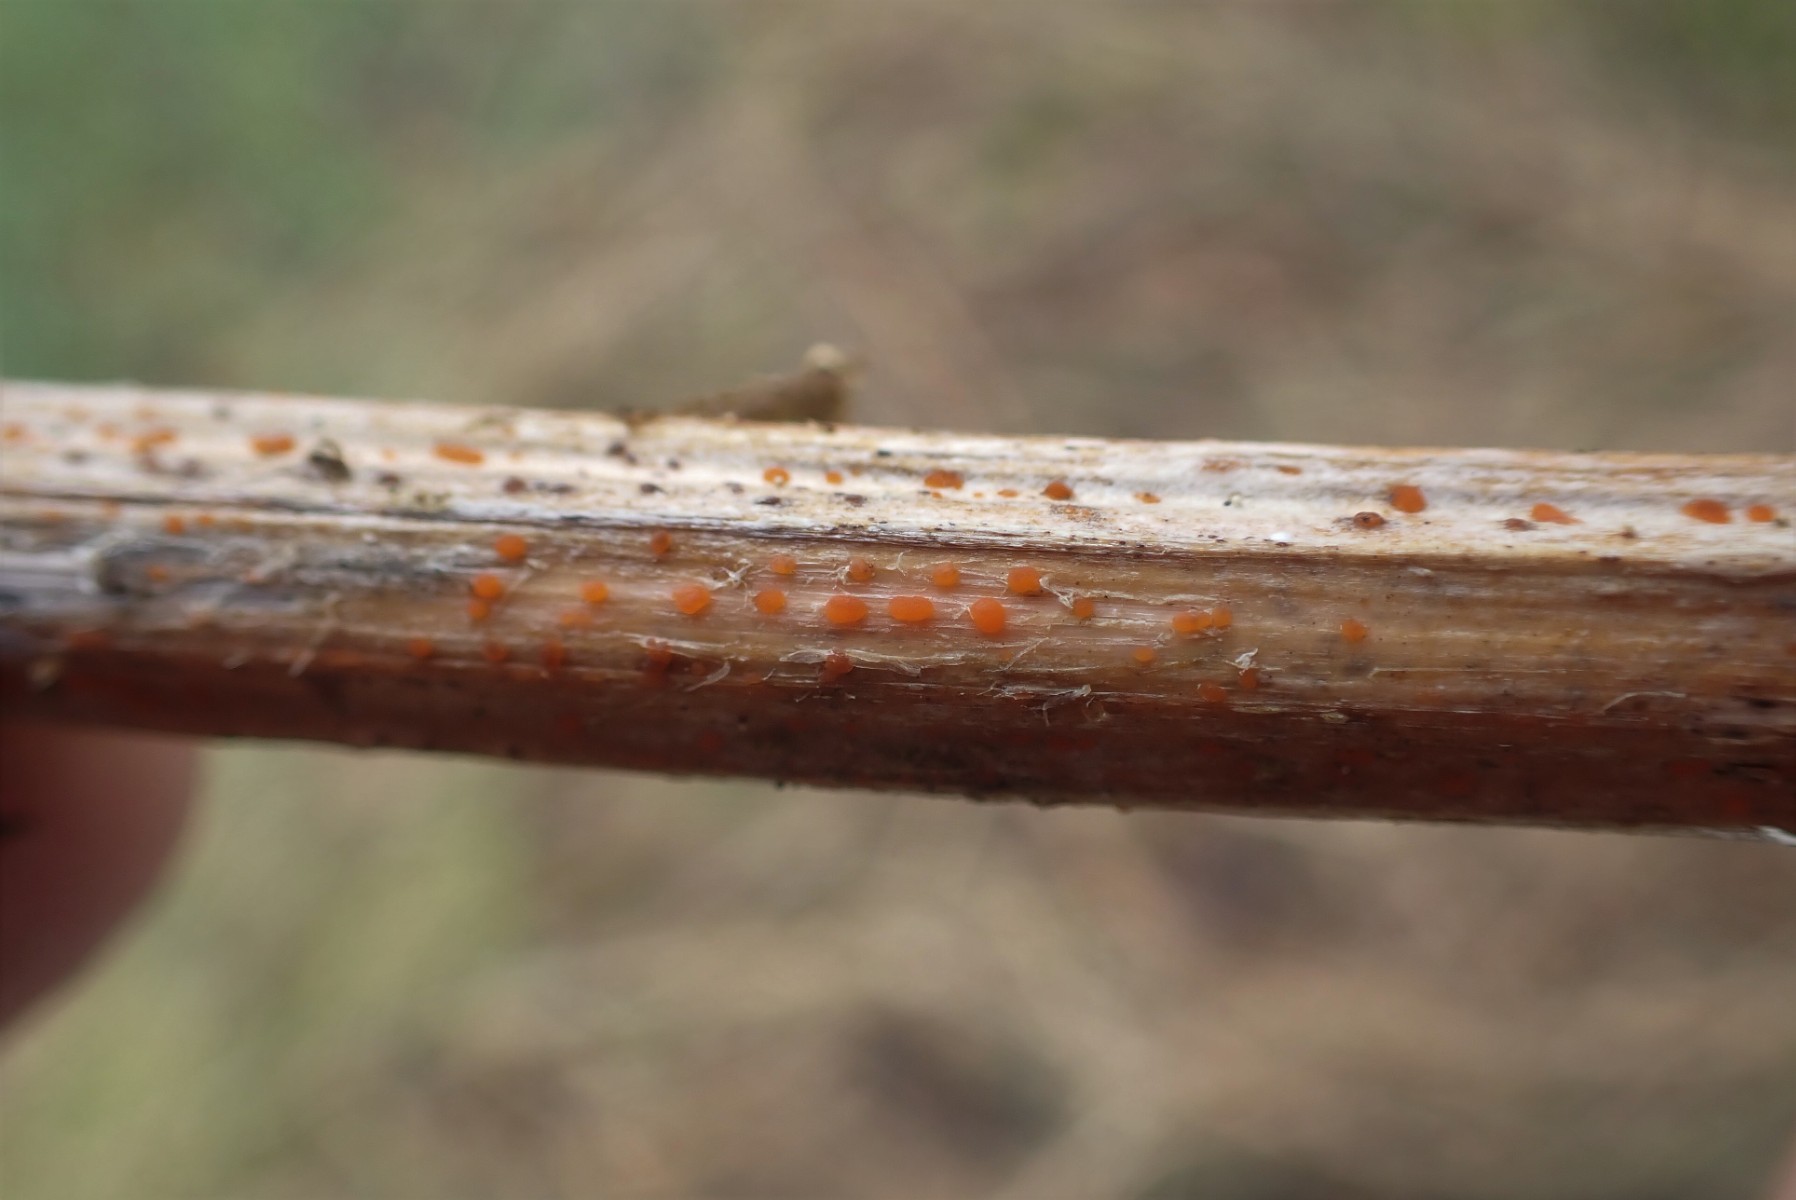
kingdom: Fungi
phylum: Ascomycota
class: Leotiomycetes
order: Helotiales
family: Calloriaceae
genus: Calloria
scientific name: Calloria urticae
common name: nælde-orangeskive
